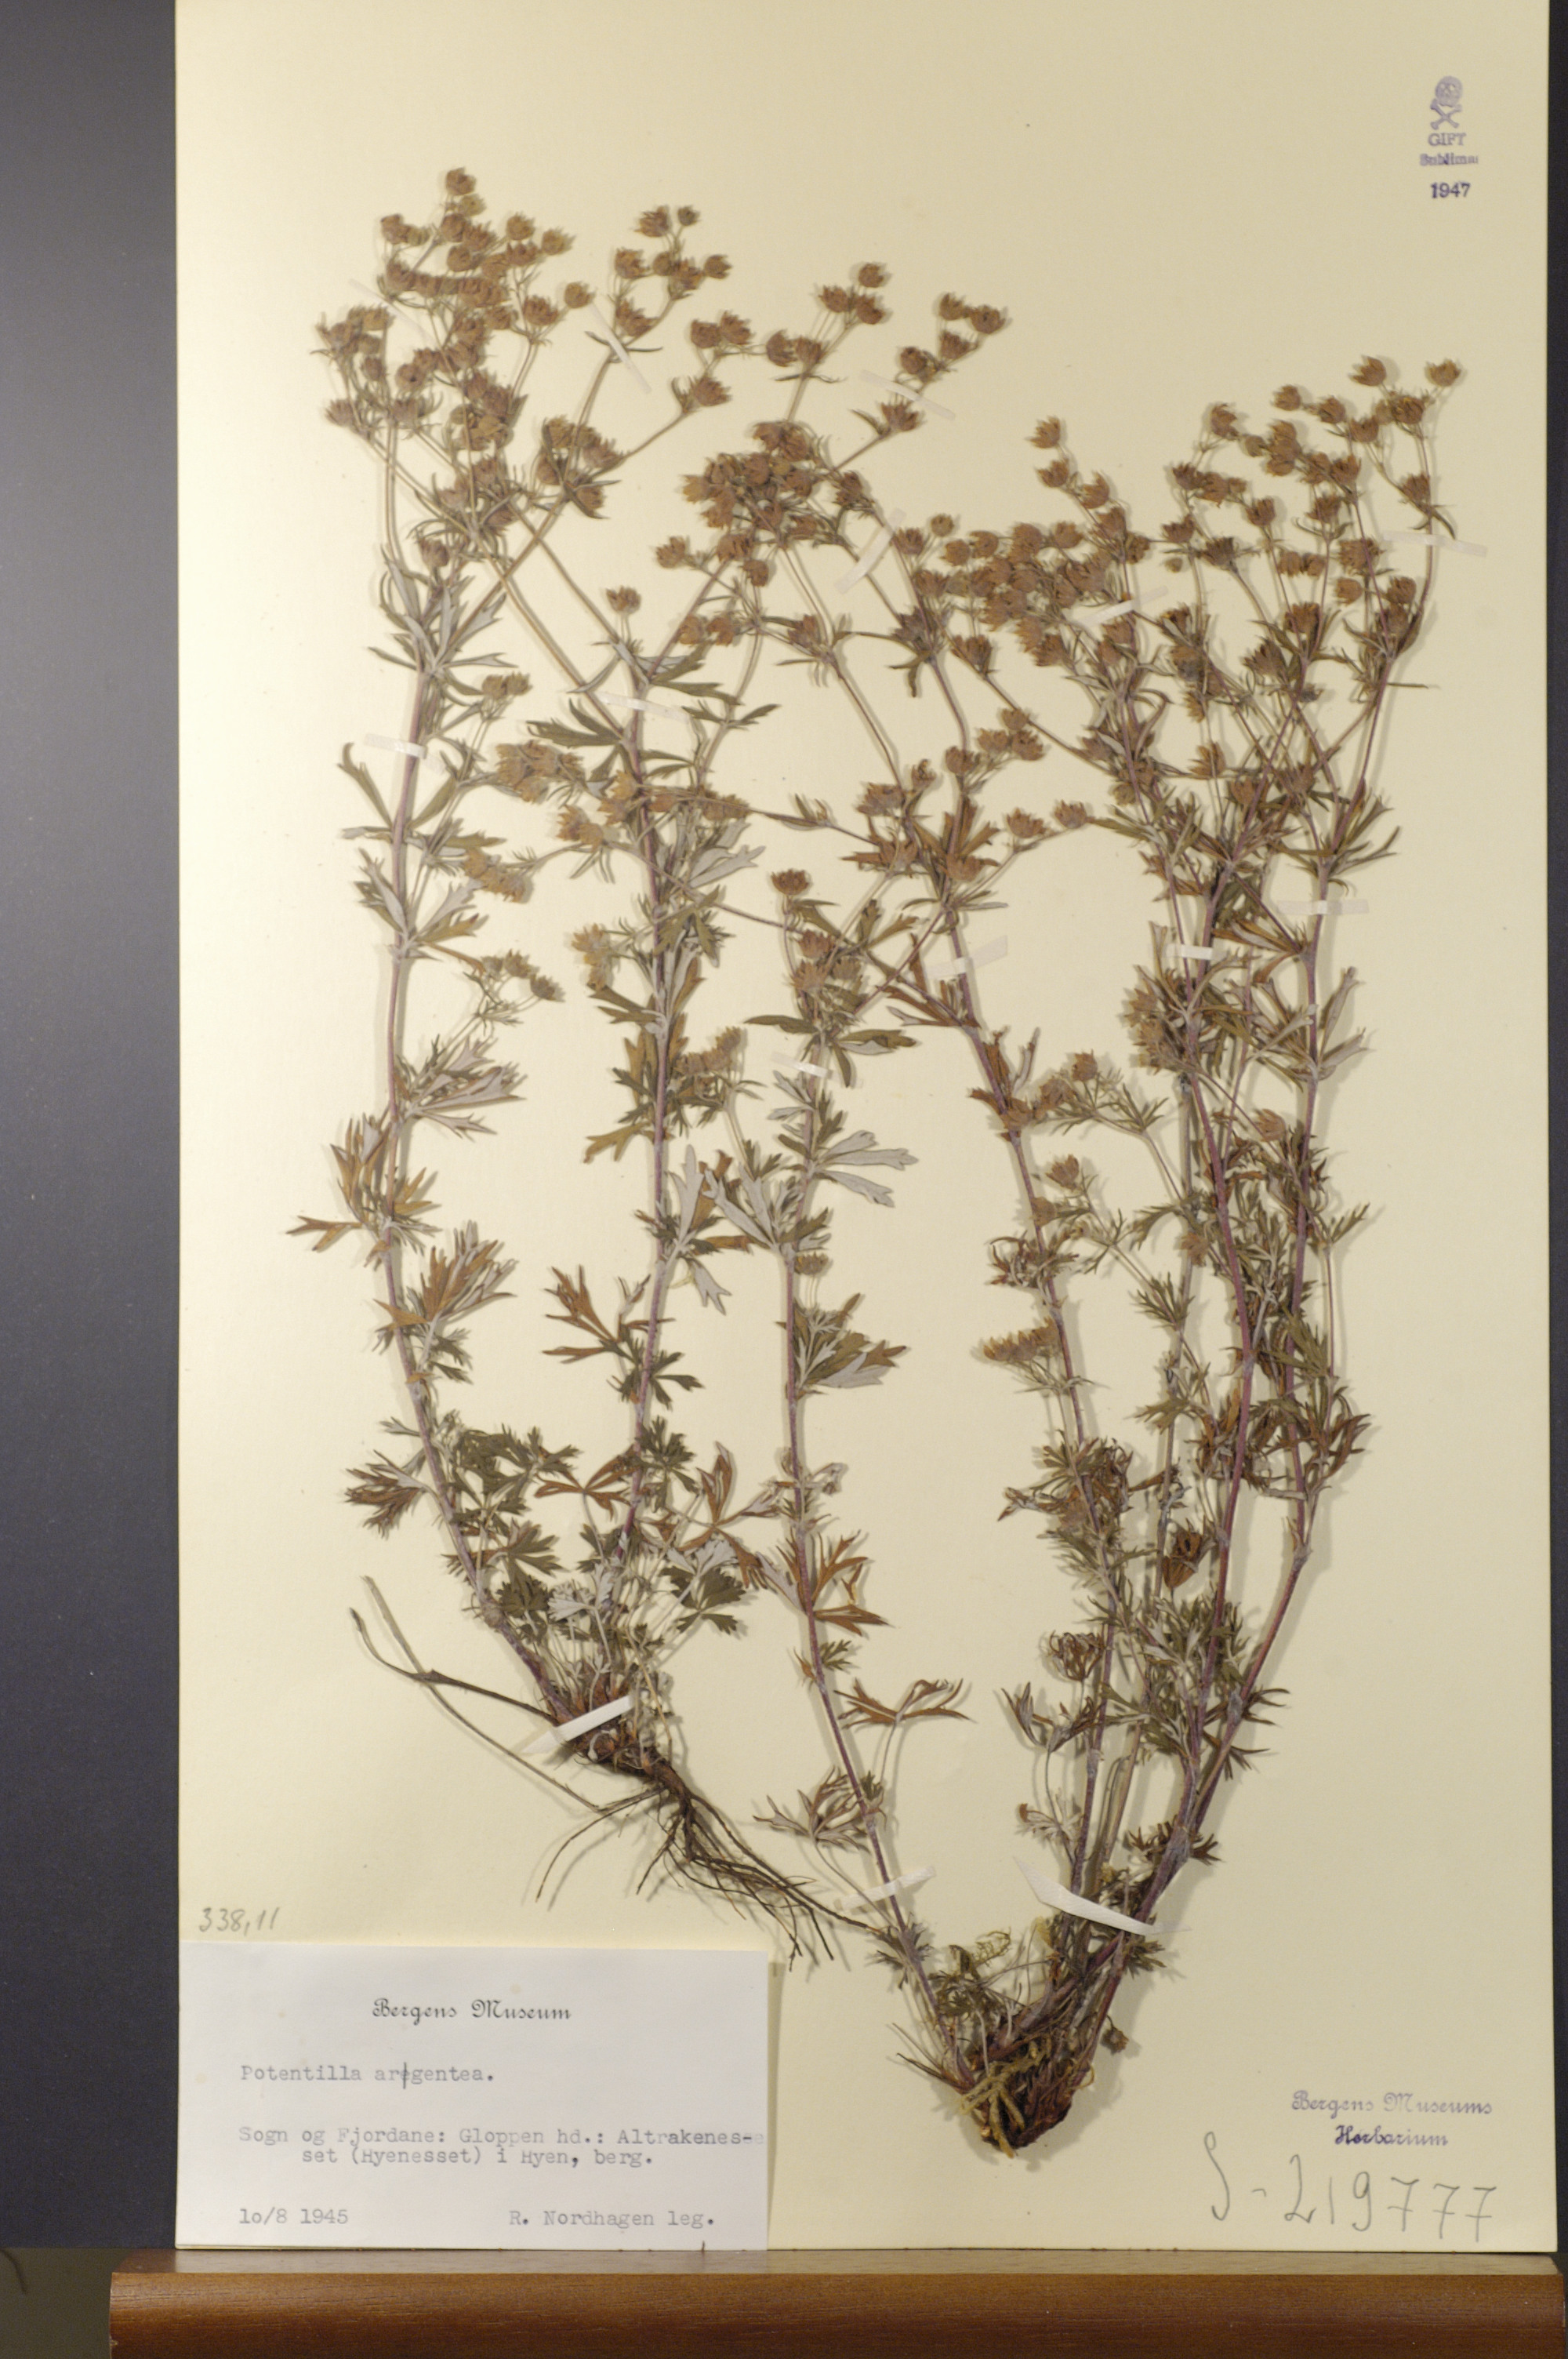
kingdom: Plantae
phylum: Tracheophyta
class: Magnoliopsida
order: Rosales
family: Rosaceae
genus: Potentilla
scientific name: Potentilla argentea
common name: Hoary cinquefoil
